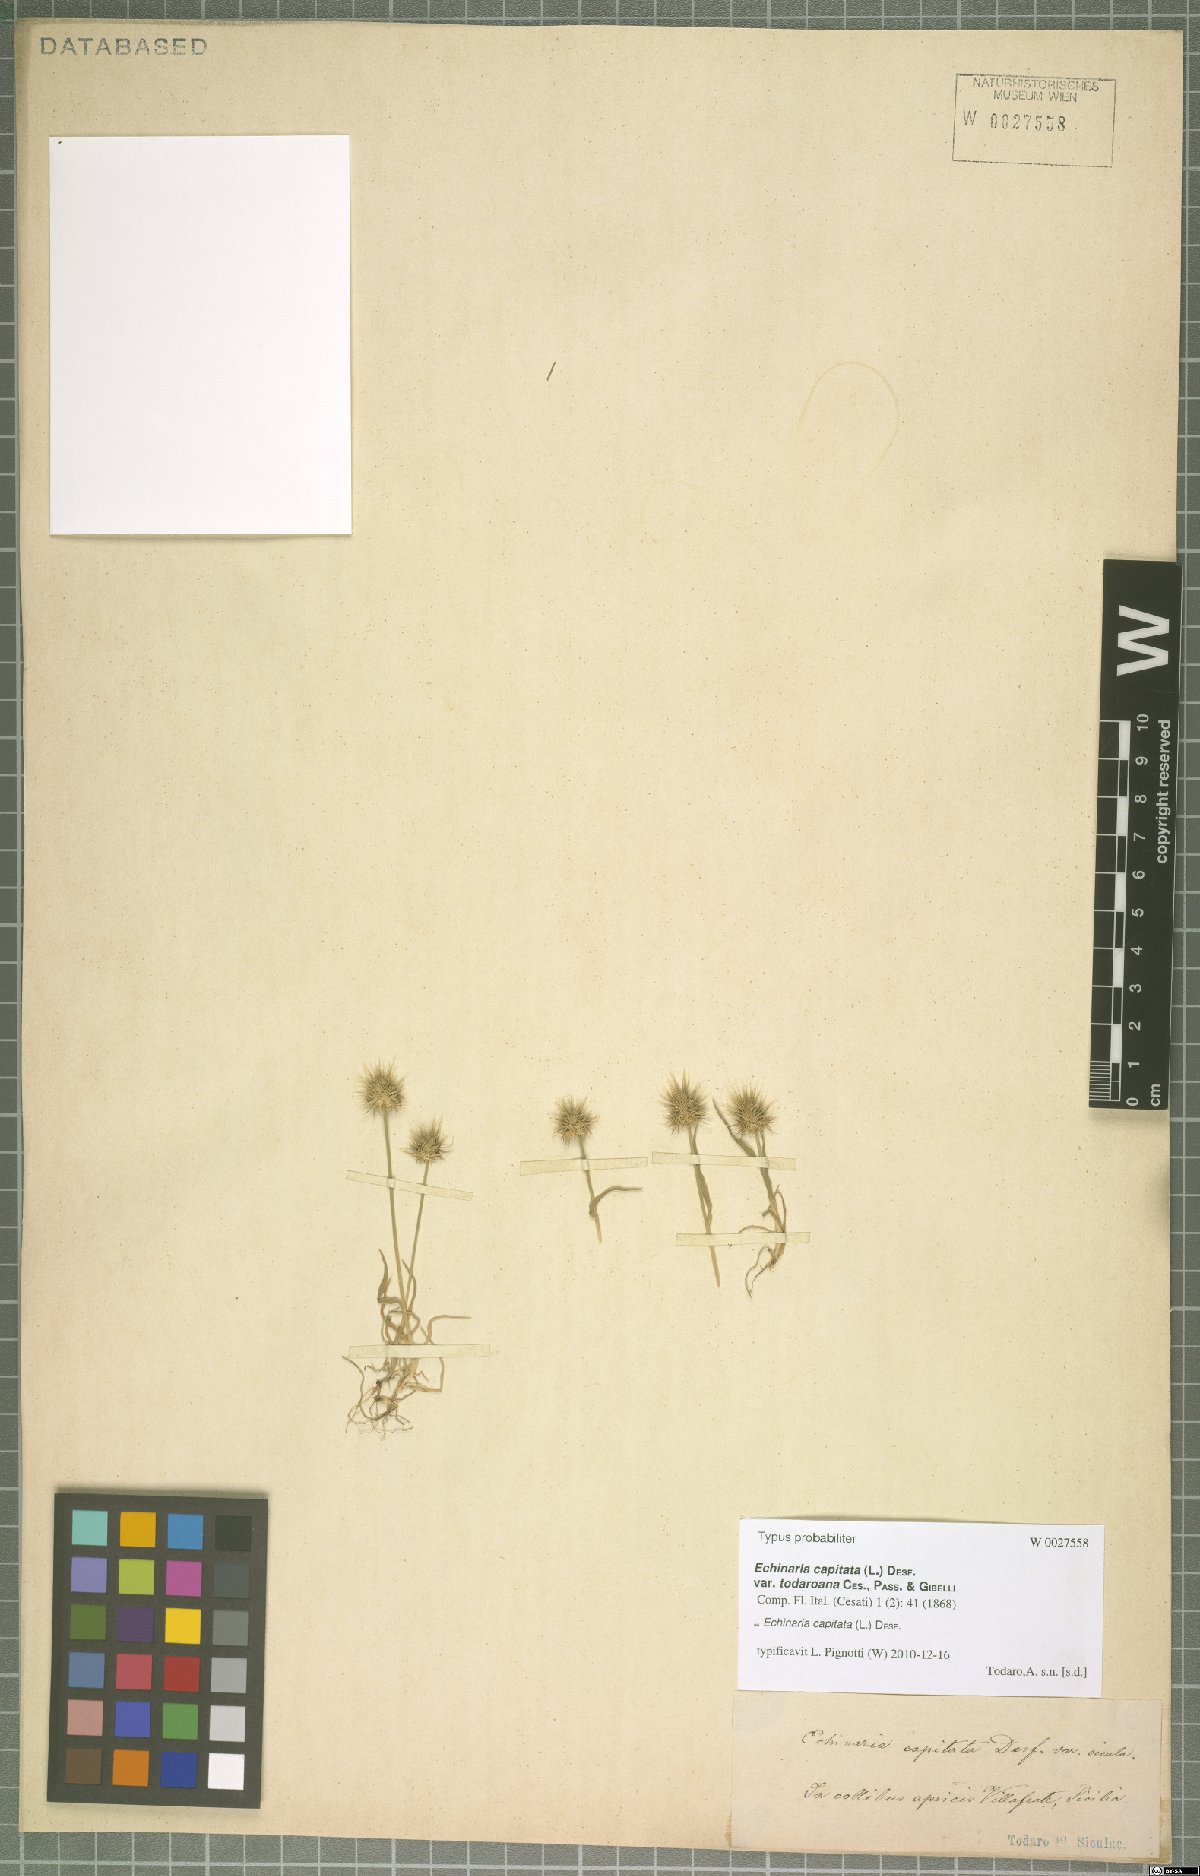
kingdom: Plantae
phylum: Tracheophyta
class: Liliopsida
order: Poales
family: Poaceae
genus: Echinaria
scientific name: Echinaria capitata
